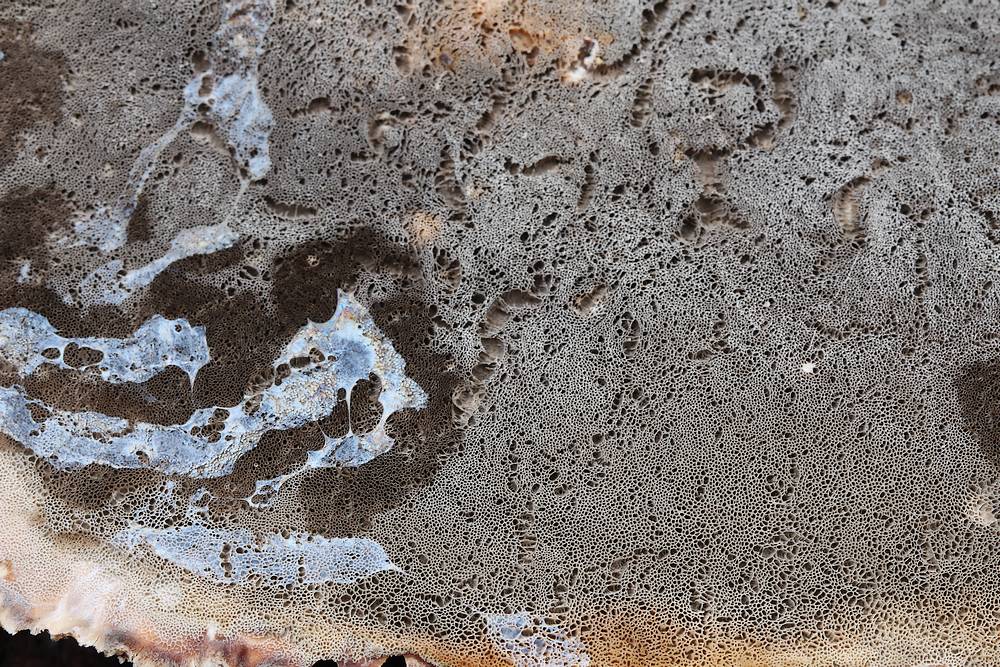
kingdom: Fungi
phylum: Basidiomycota
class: Agaricomycetes
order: Polyporales
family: Phanerochaetaceae
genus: Bjerkandera
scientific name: Bjerkandera adusta
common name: sveden sodporesvamp
